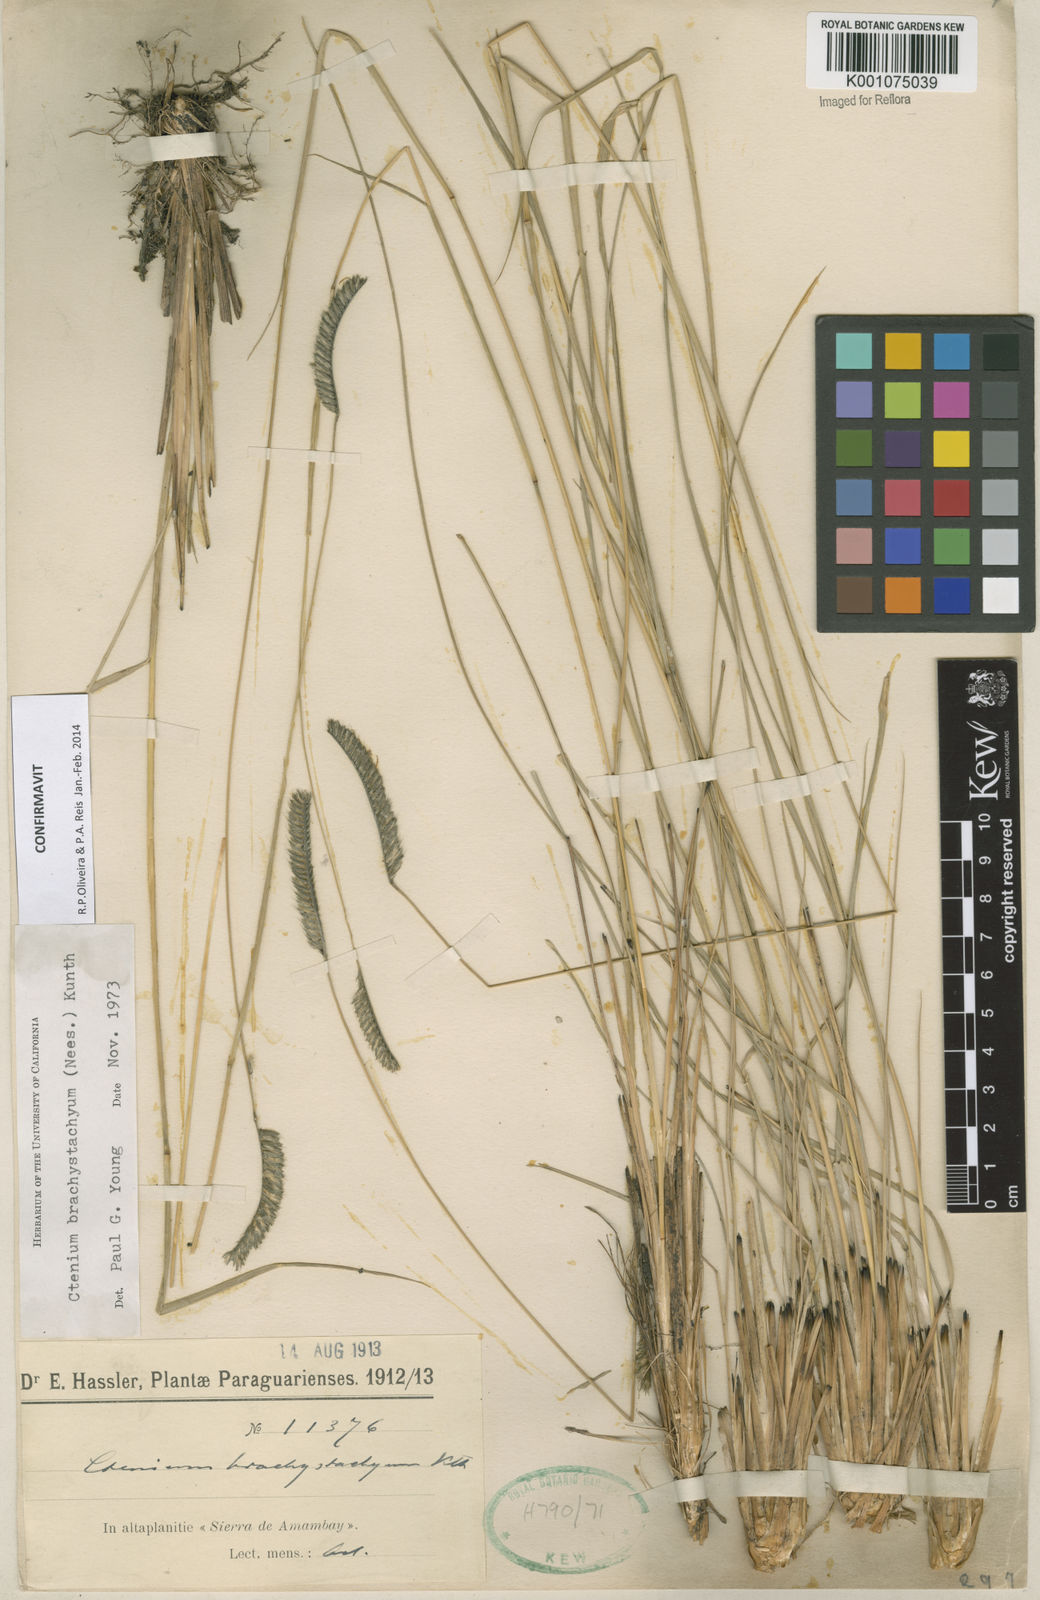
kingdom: Plantae
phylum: Tracheophyta
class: Liliopsida
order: Poales
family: Poaceae
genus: Ctenium
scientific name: Ctenium brachystachyum
